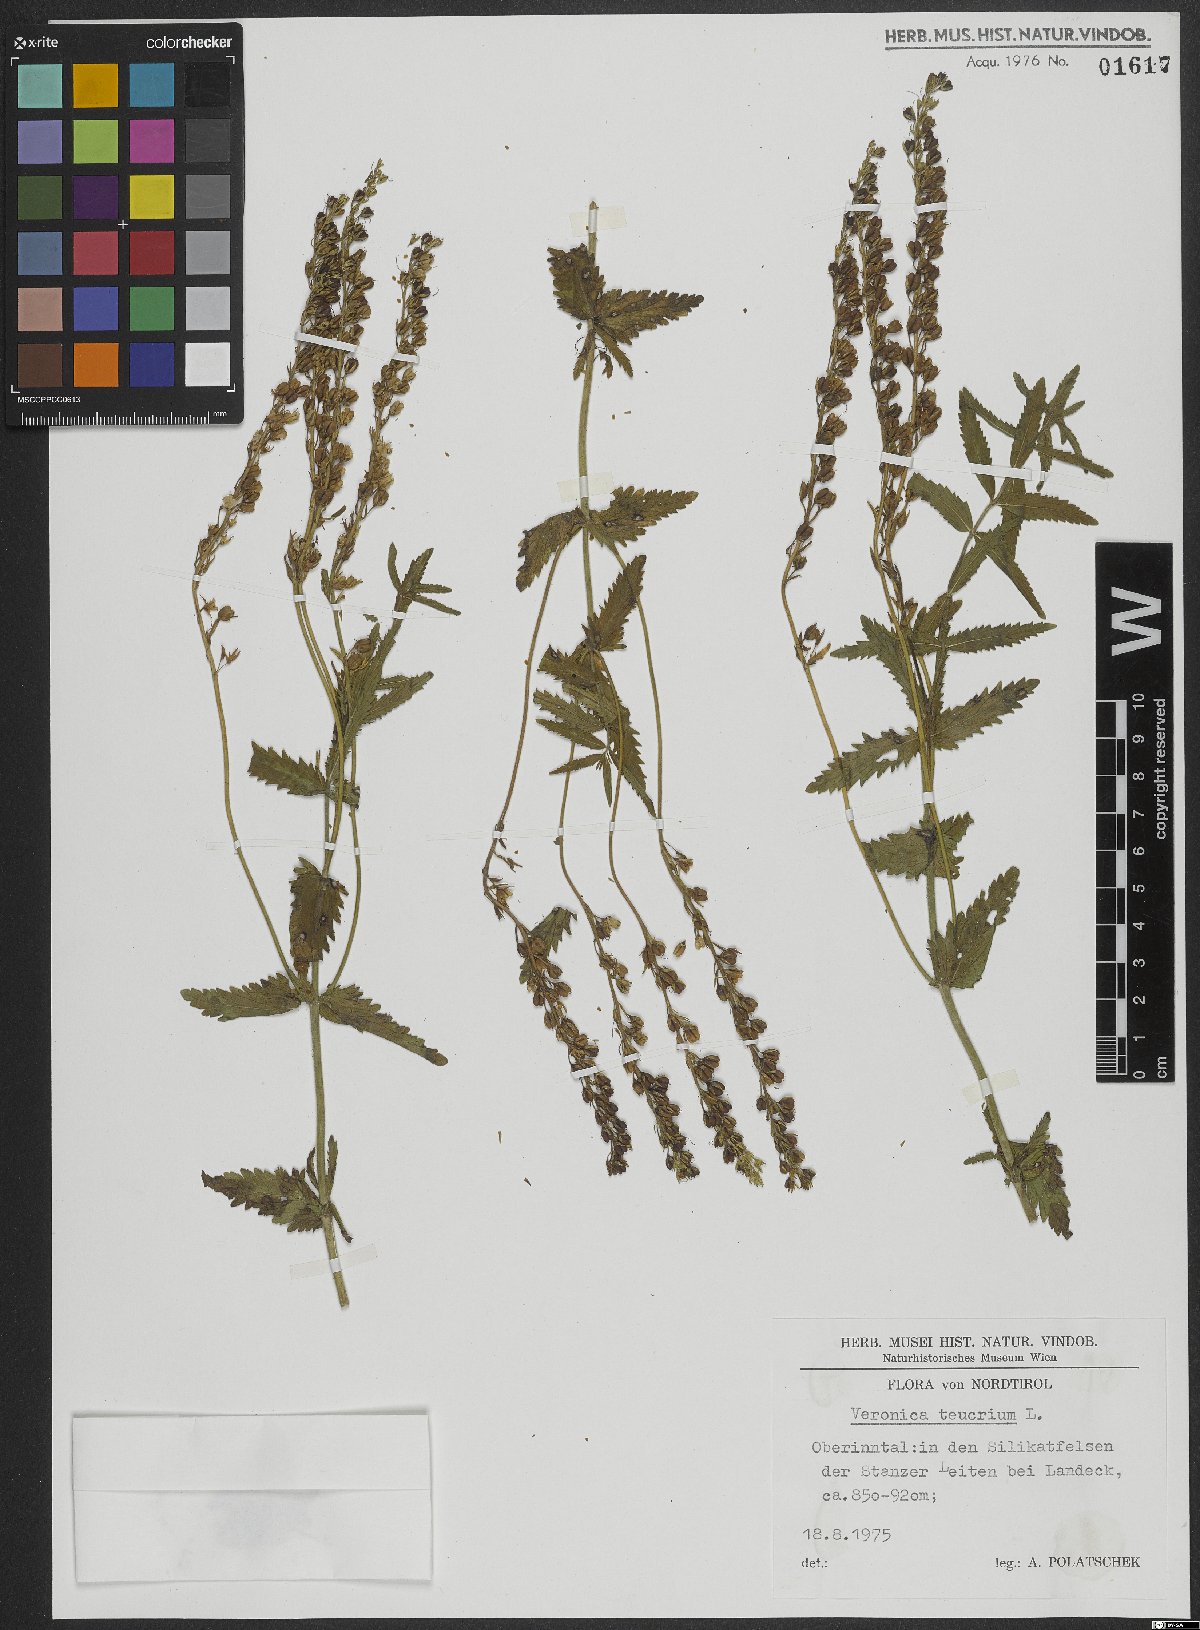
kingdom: Plantae
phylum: Tracheophyta
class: Magnoliopsida
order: Lamiales
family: Plantaginaceae
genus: Veronica
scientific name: Veronica teucrium
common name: Large speedwell
